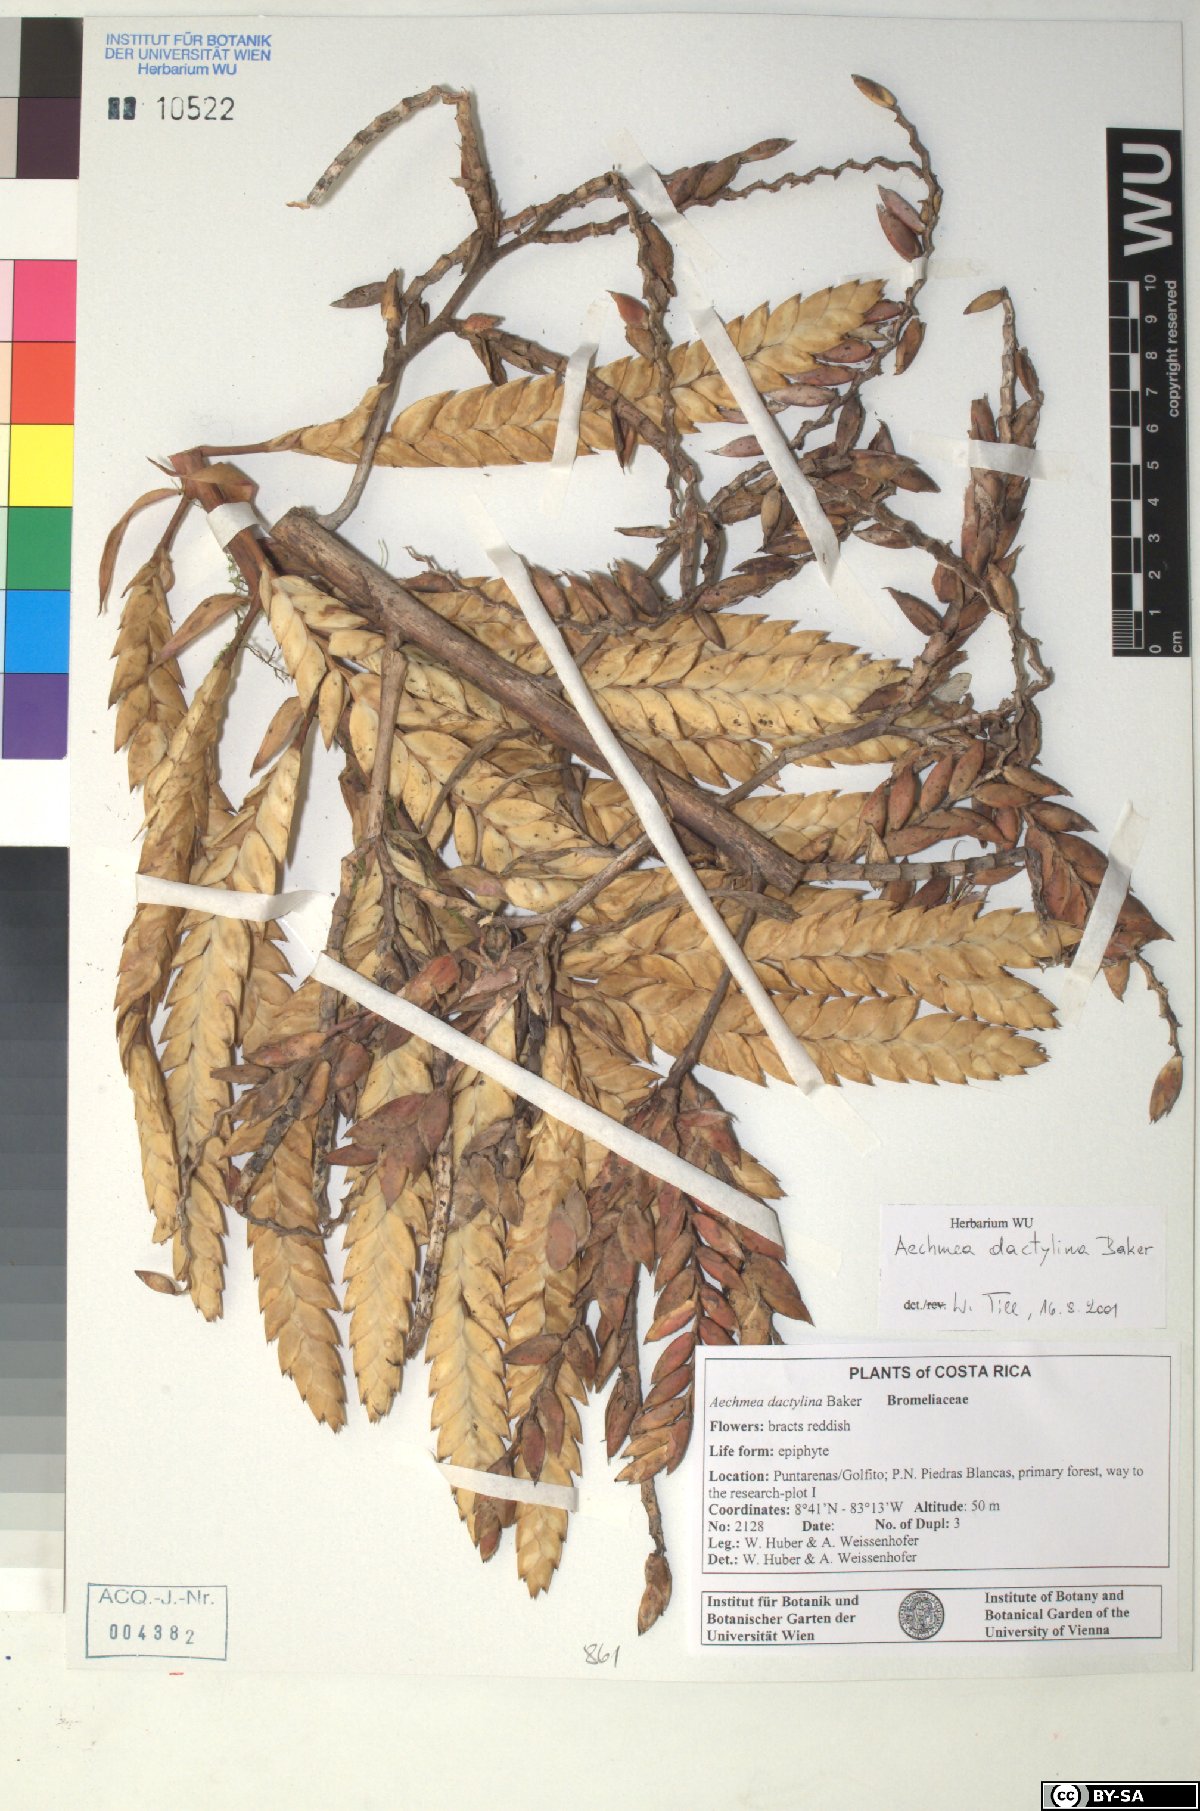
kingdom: Plantae
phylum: Tracheophyta
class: Liliopsida
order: Poales
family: Bromeliaceae
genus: Aechmea
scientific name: Aechmea dactylina
